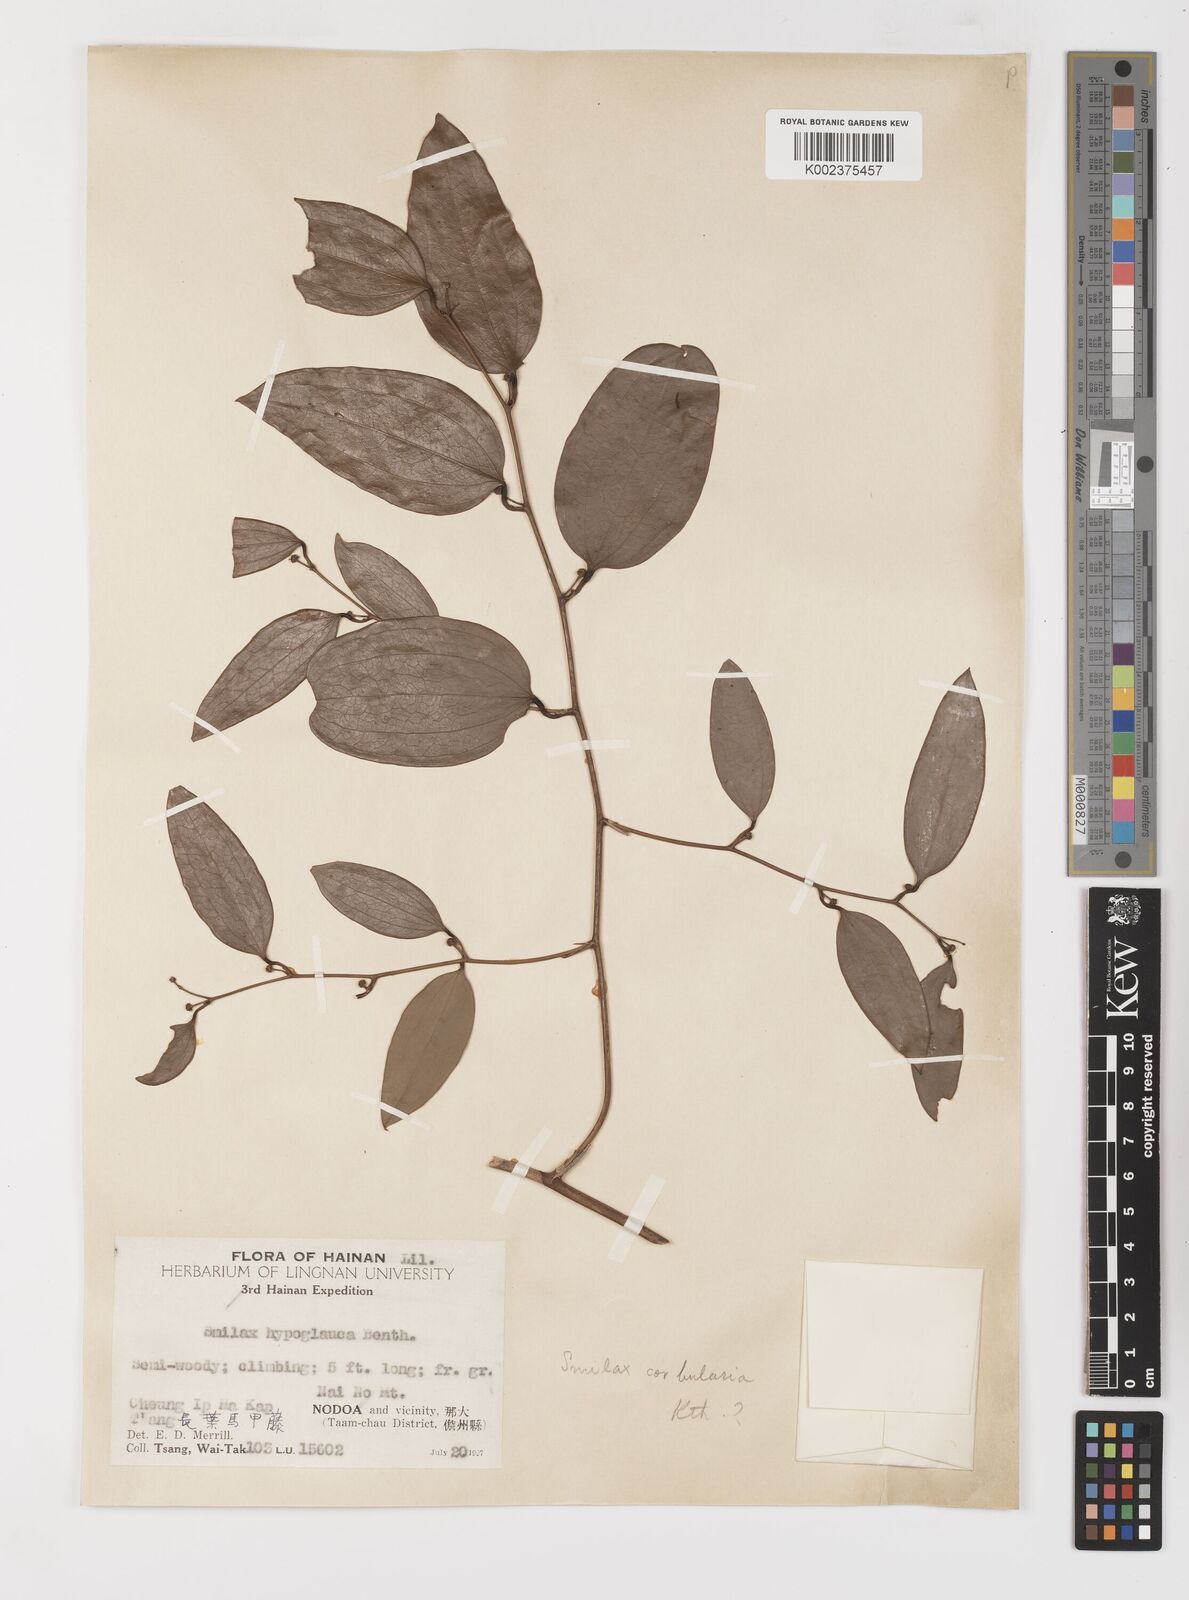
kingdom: Plantae
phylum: Tracheophyta
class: Liliopsida
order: Liliales
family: Smilacaceae
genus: Smilax
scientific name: Smilax hypoglauca
